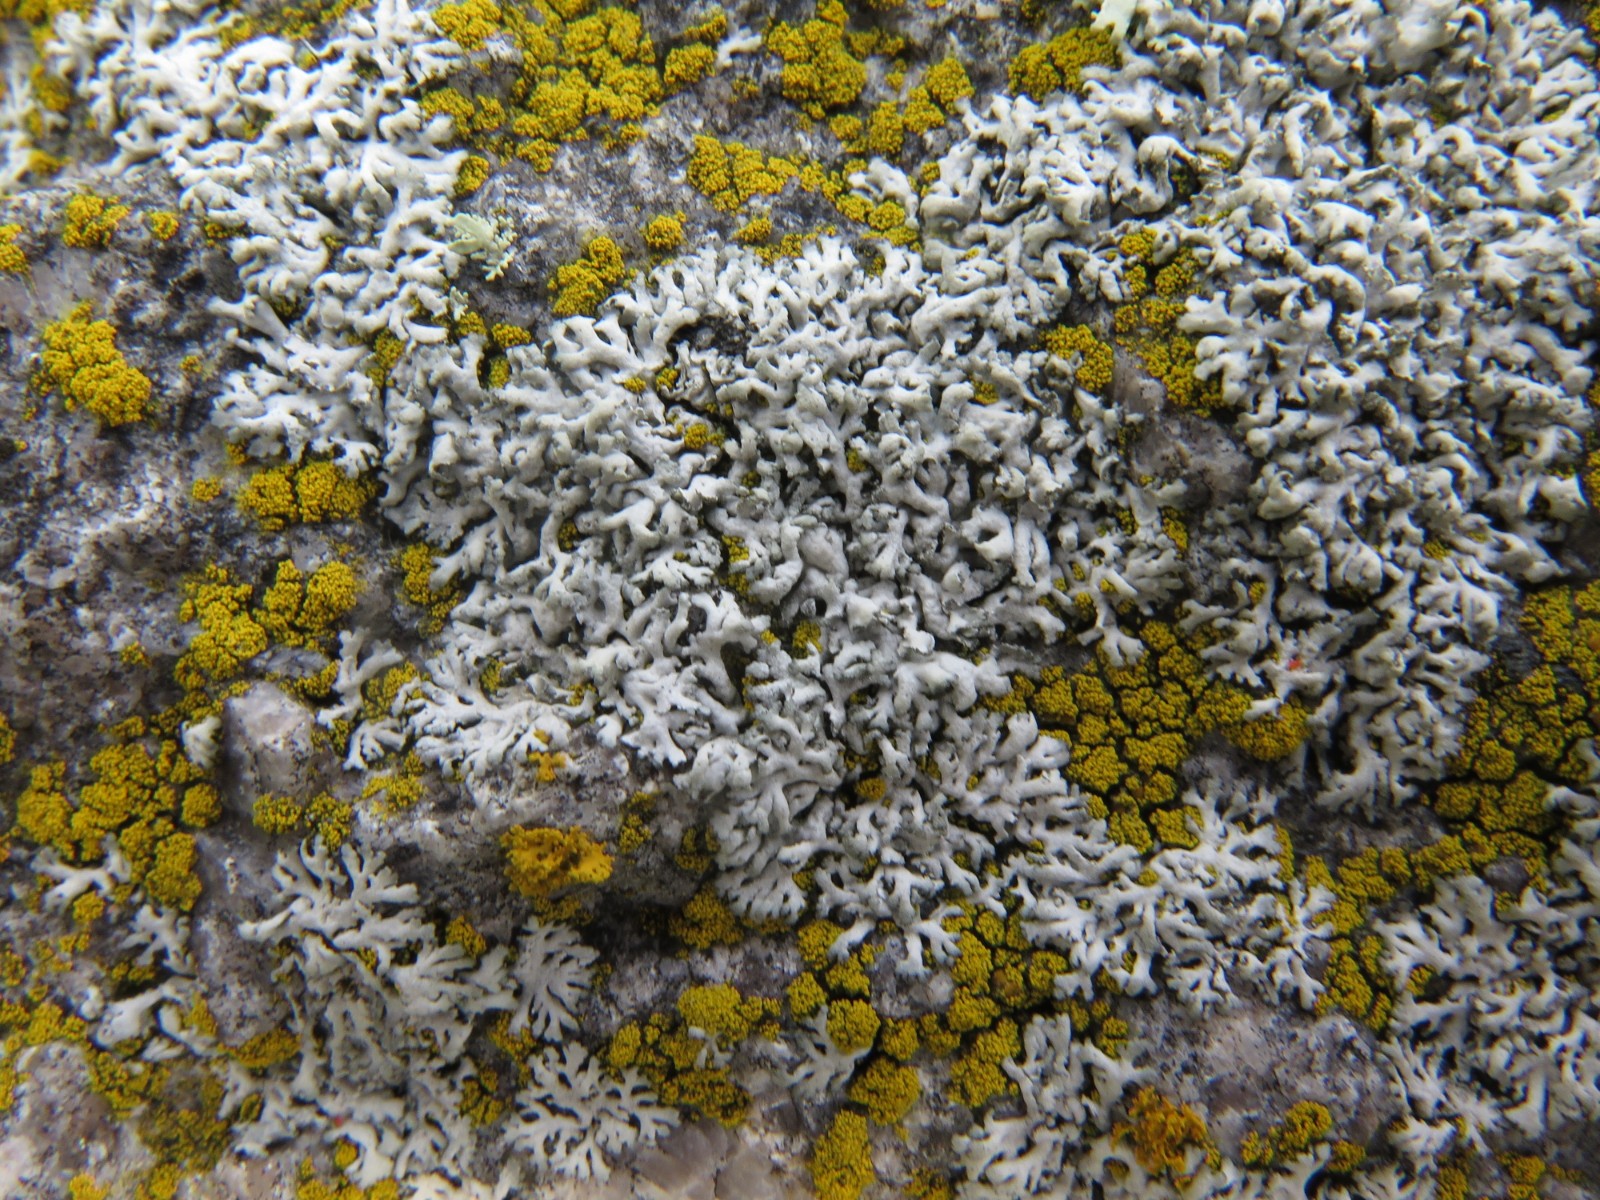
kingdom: Fungi
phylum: Ascomycota
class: Lecanoromycetes
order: Caliciales
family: Physciaceae
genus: Physcia
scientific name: Physcia dubia
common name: fuglestens-rosetlav
